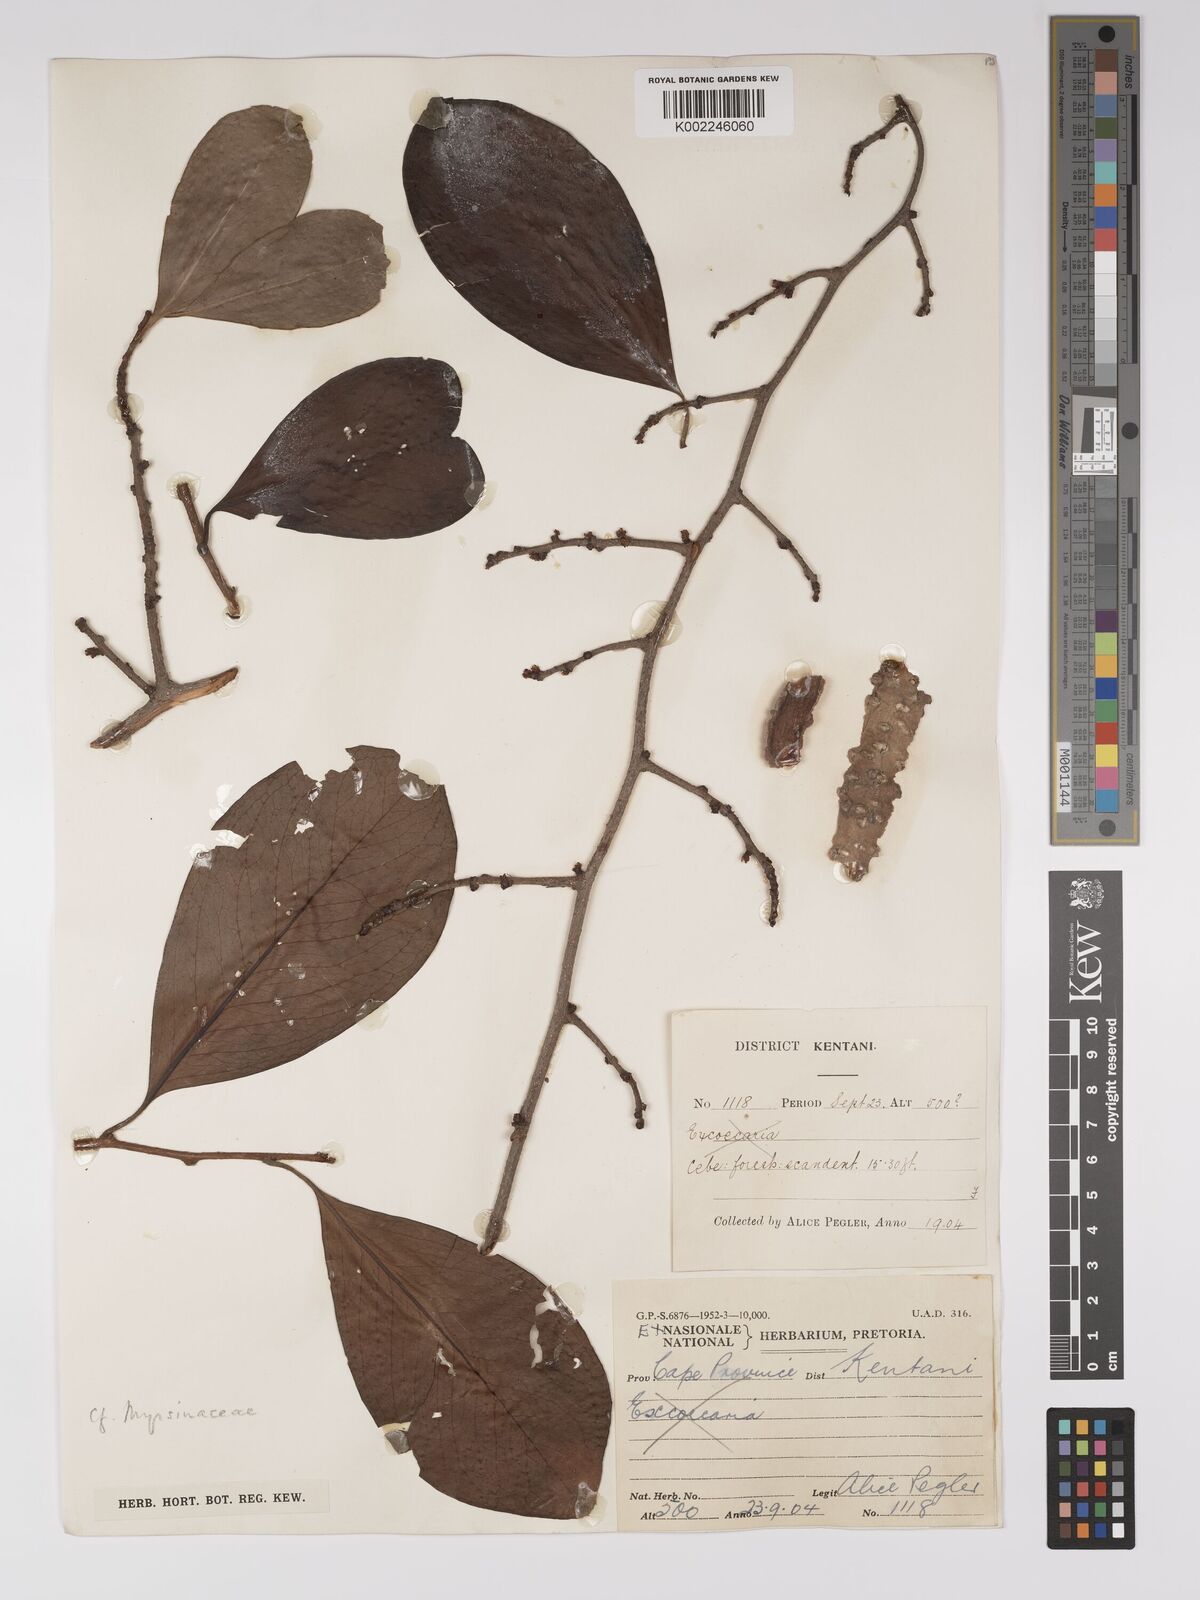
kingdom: Plantae
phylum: Tracheophyta
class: Magnoliopsida
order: Malpighiales
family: Euphorbiaceae
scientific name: Euphorbiaceae
